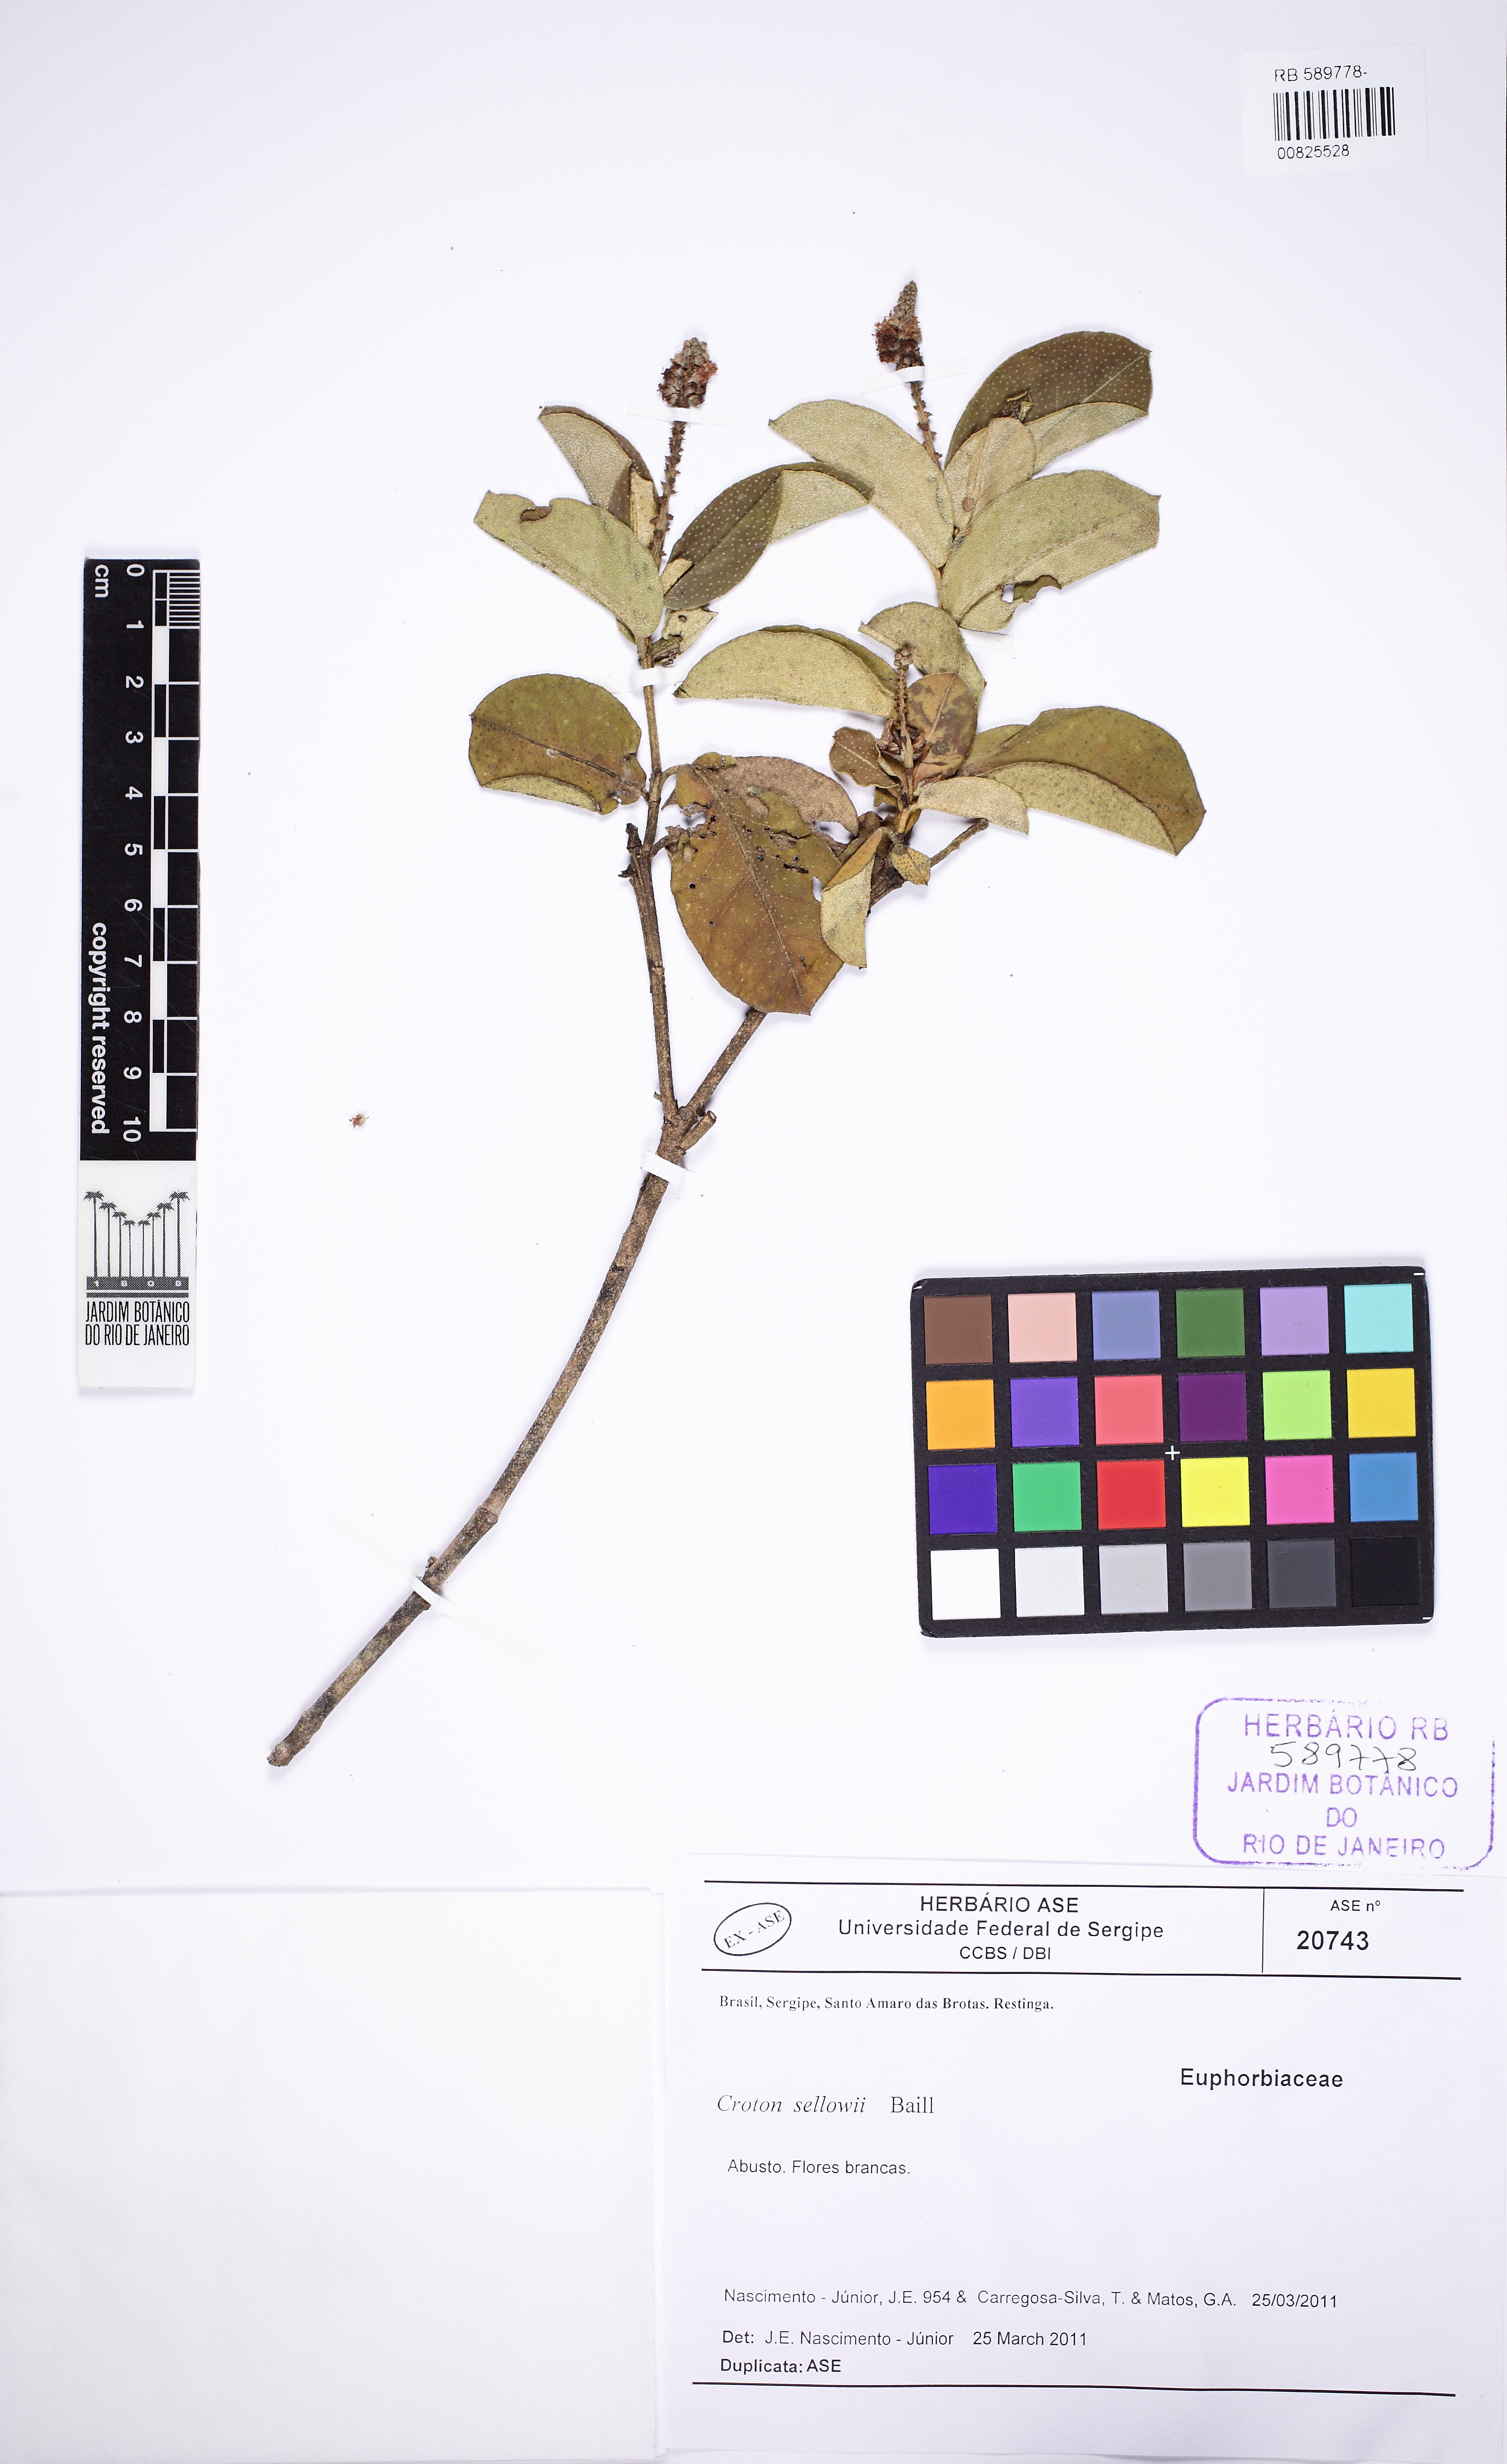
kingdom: Plantae
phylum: Tracheophyta
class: Magnoliopsida
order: Malpighiales
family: Euphorbiaceae
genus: Croton
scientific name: Croton sellowii
